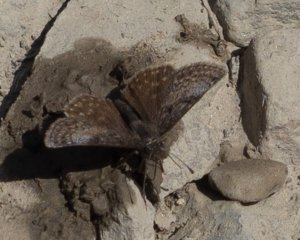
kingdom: Animalia
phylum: Arthropoda
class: Insecta
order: Lepidoptera
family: Hesperiidae
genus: Erynnis
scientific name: Erynnis icelus
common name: Dreamy Duskywing
